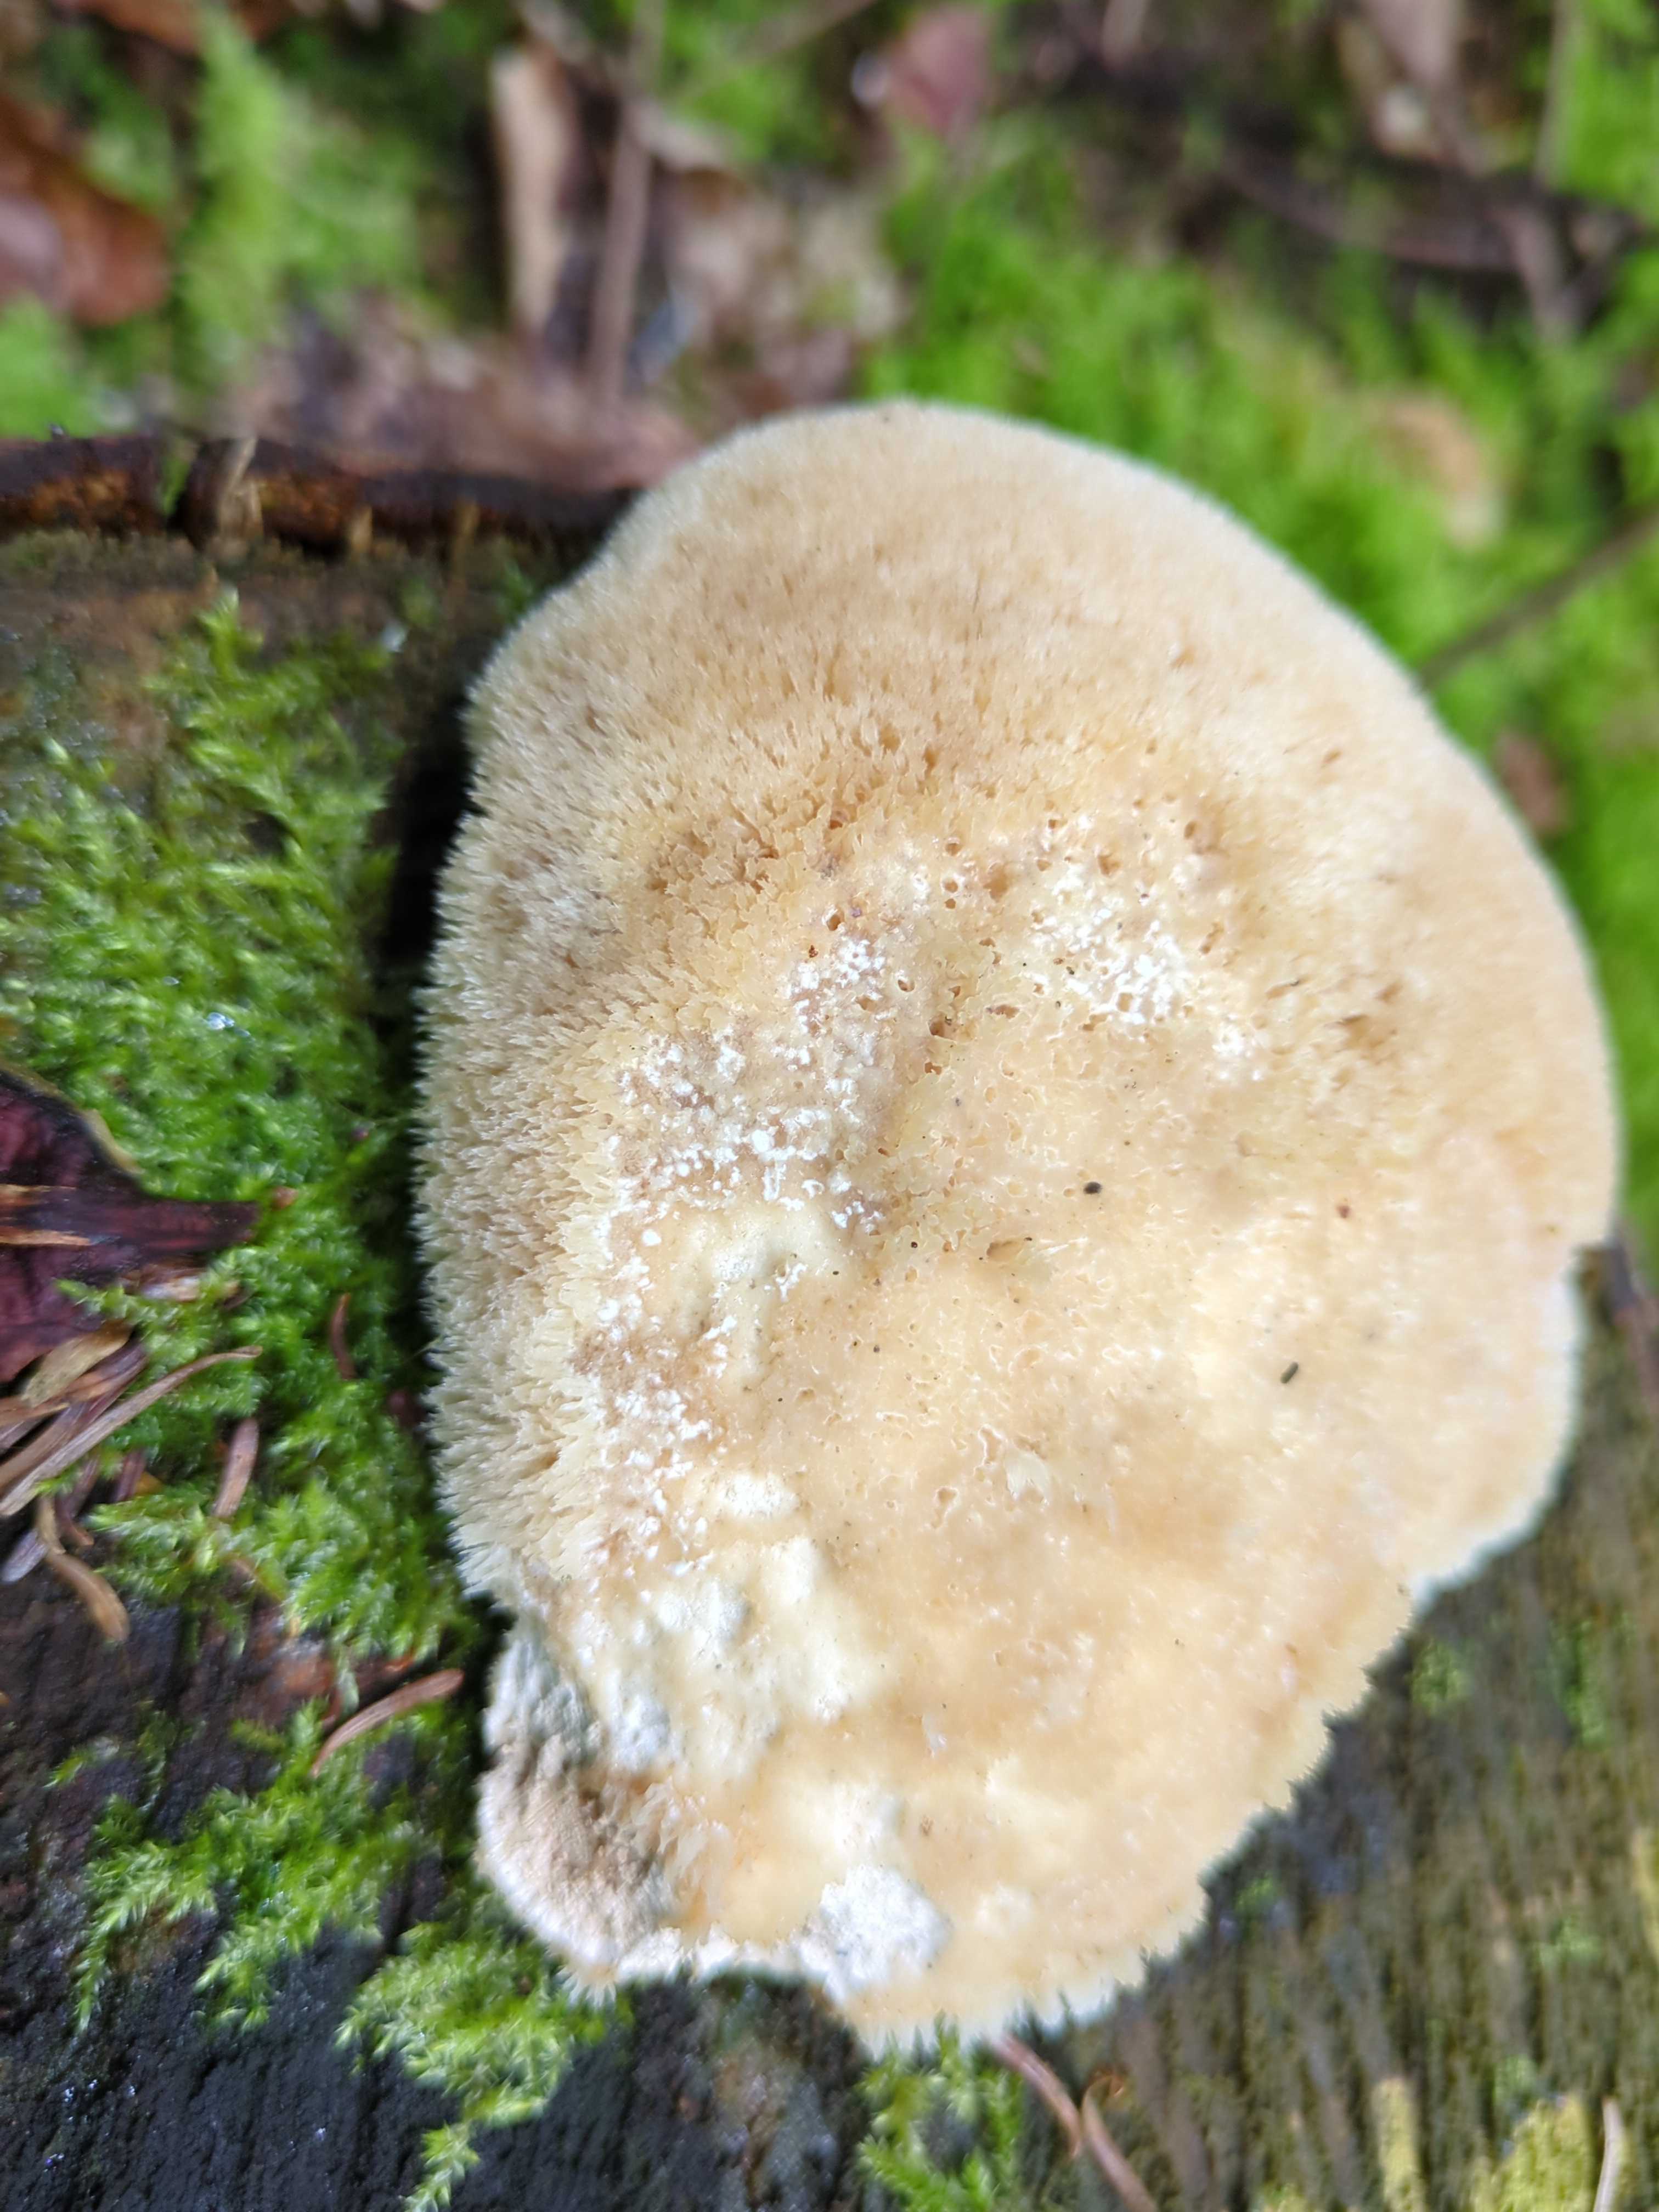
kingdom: Fungi
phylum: Basidiomycota
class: Agaricomycetes
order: Polyporales
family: Dacryobolaceae
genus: Postia
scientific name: Postia ptychogaster
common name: støvende kødporesvamp
